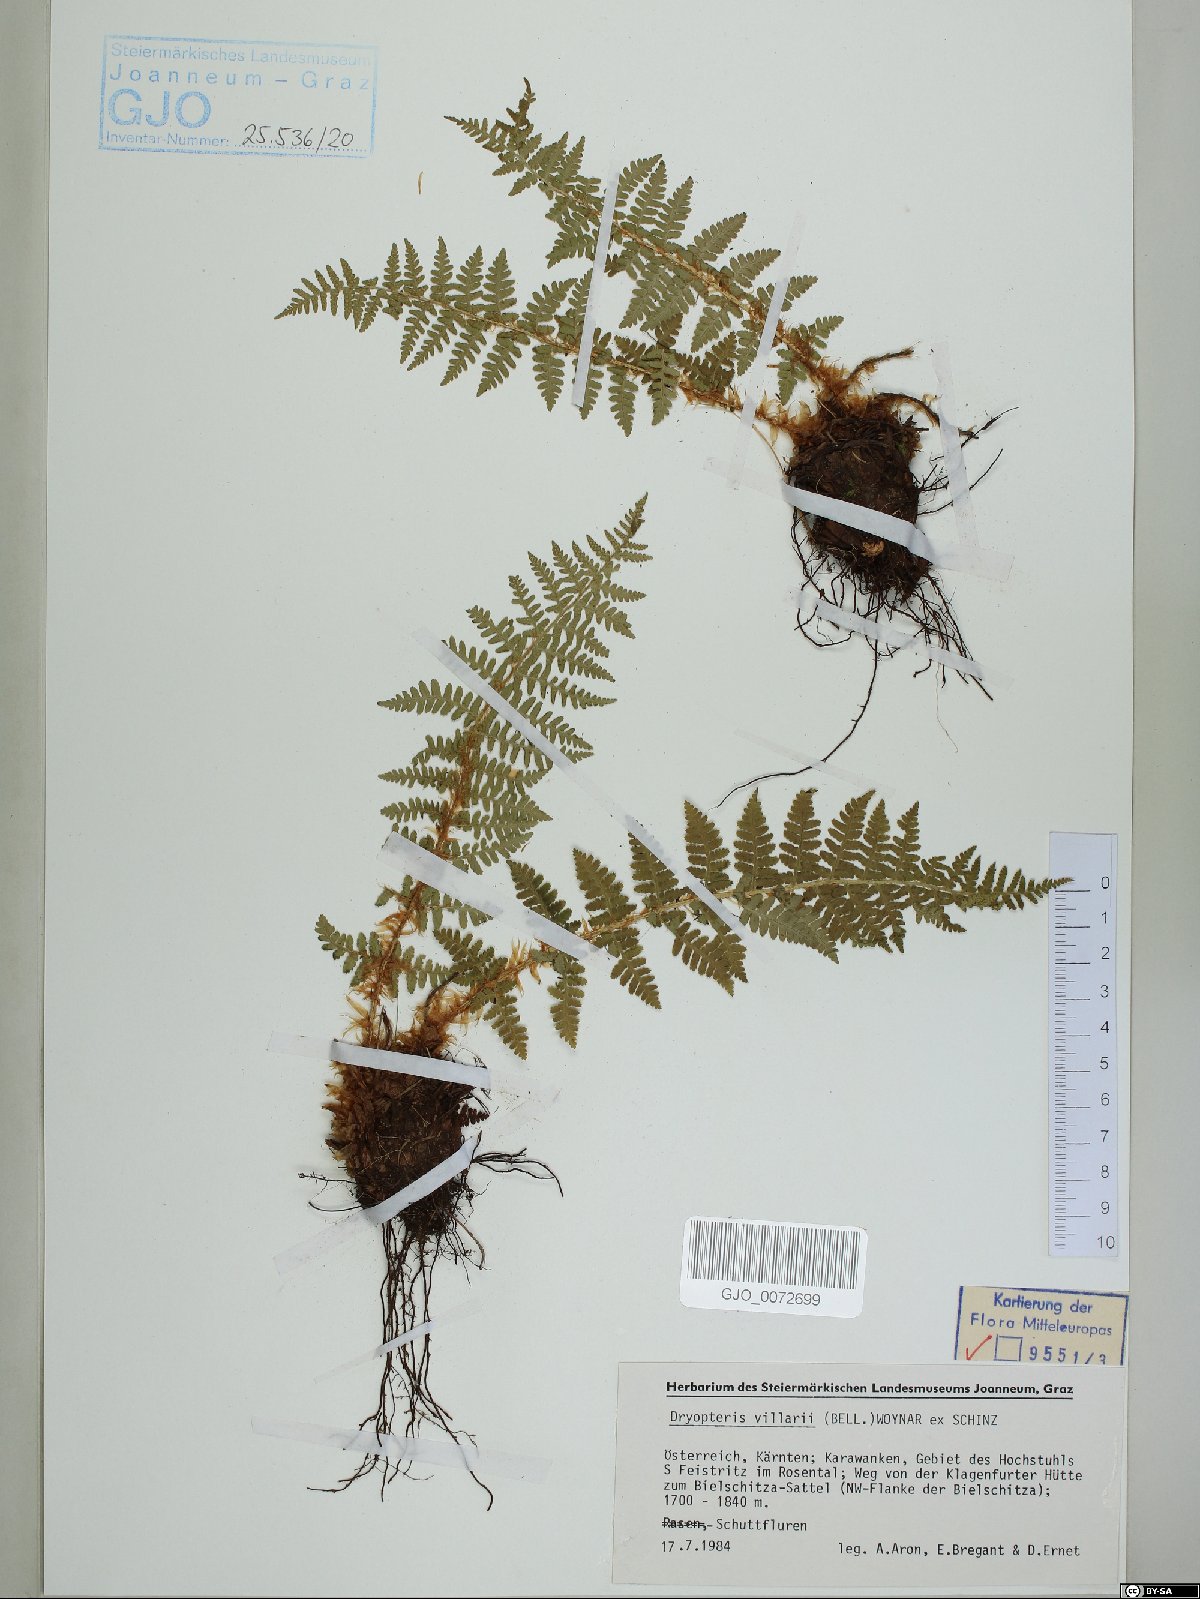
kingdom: Plantae
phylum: Tracheophyta
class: Polypodiopsida
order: Polypodiales
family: Dryopteridaceae
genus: Dryopteris
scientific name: Dryopteris villarii
